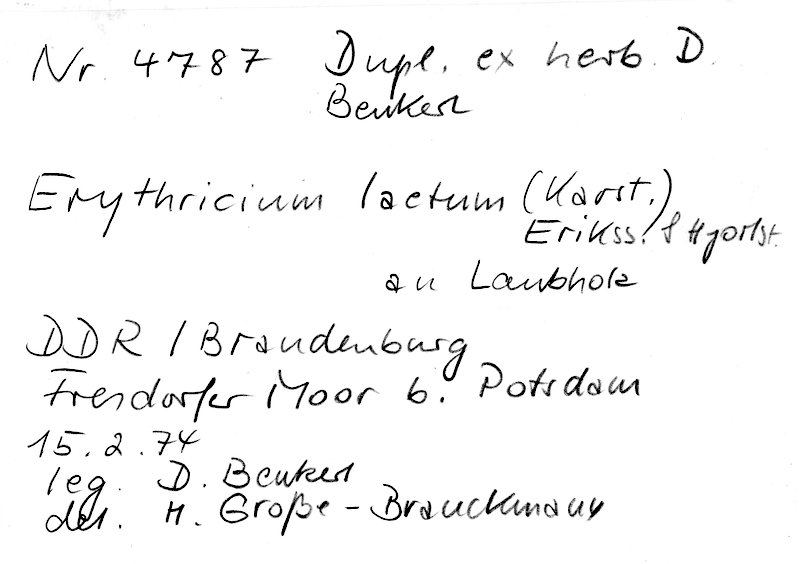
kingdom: Fungi
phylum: Basidiomycota
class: Agaricomycetes
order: Corticiales
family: Corticiaceae
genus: Erythricium
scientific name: Erythricium laetum
